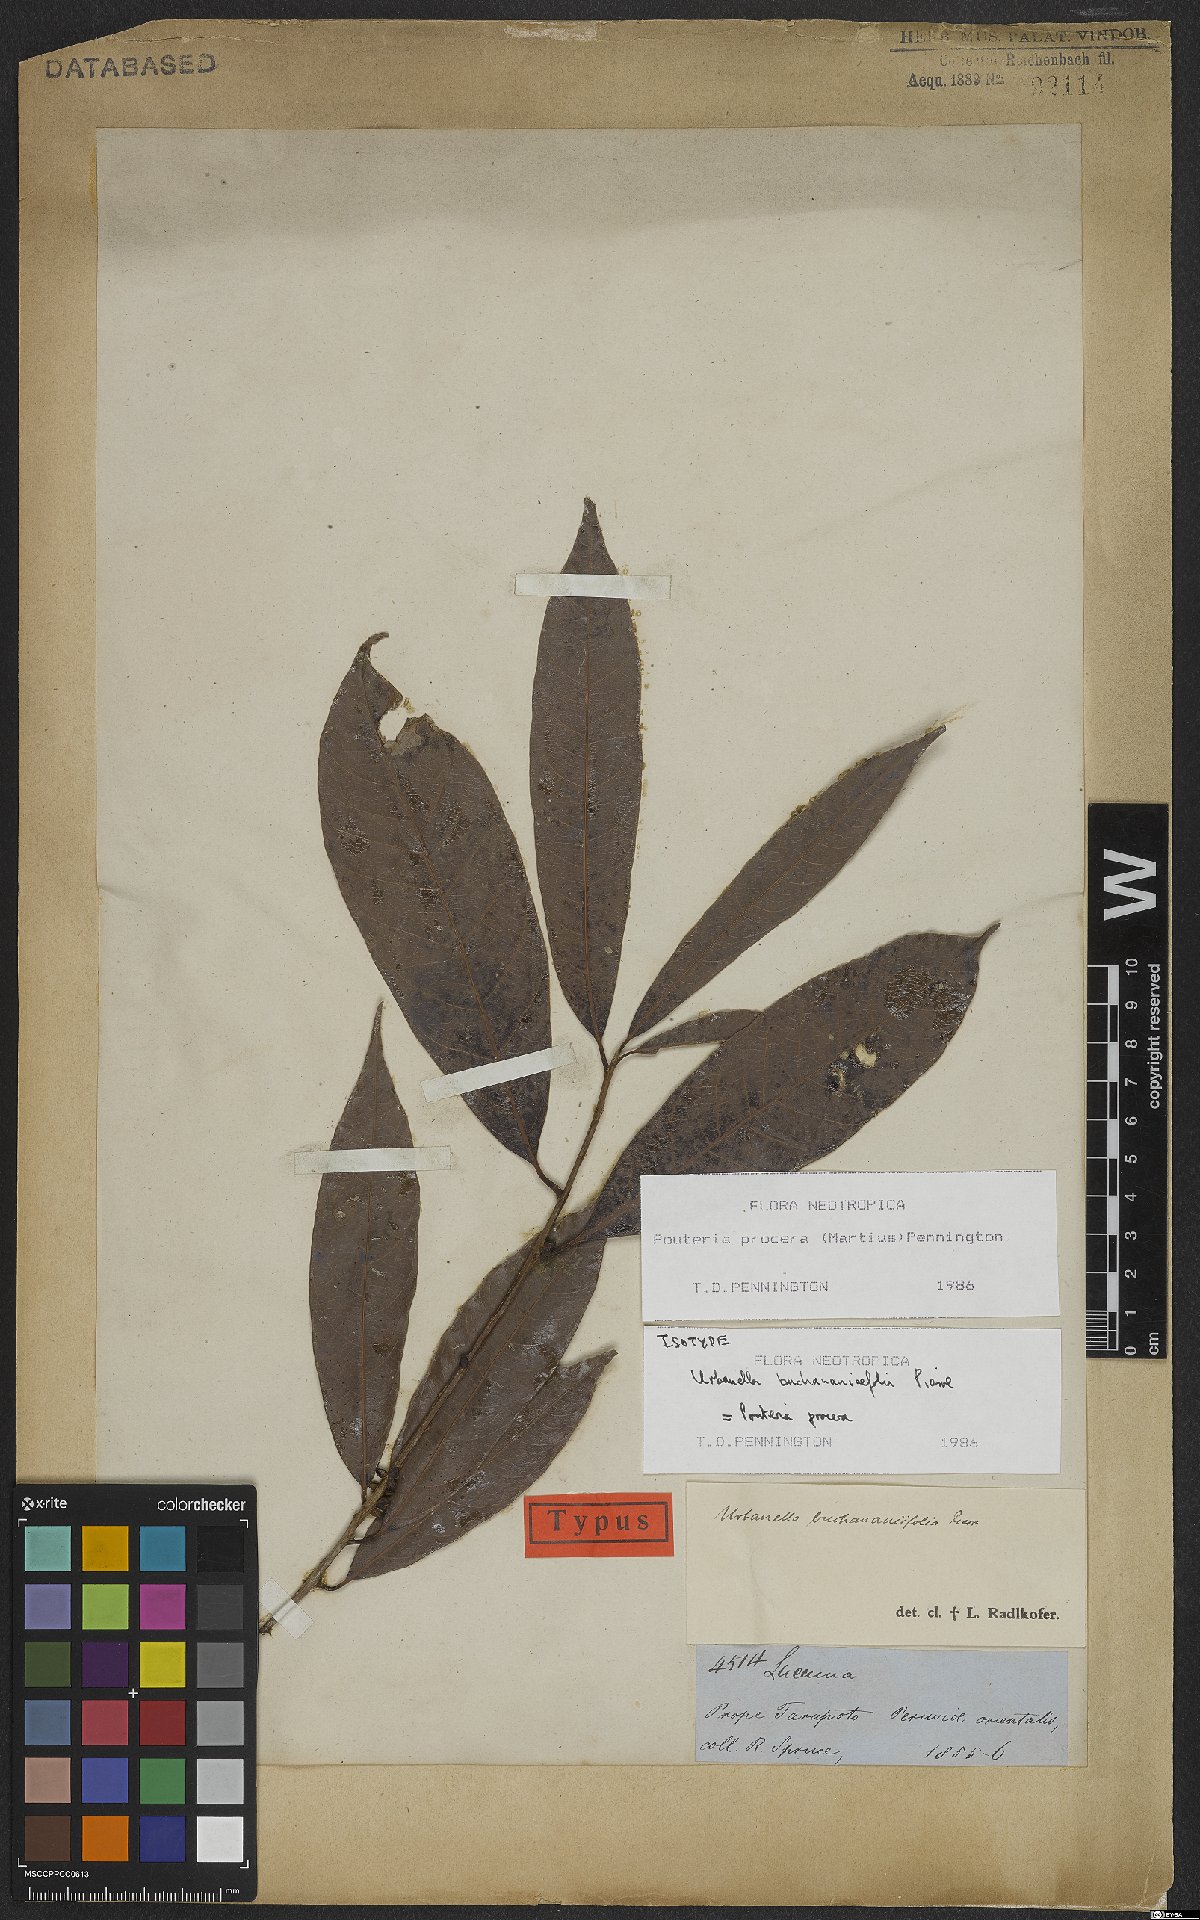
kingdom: Plantae
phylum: Tracheophyta
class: Magnoliopsida
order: Ericales
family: Sapotaceae
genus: Pouteria
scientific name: Pouteria procera
